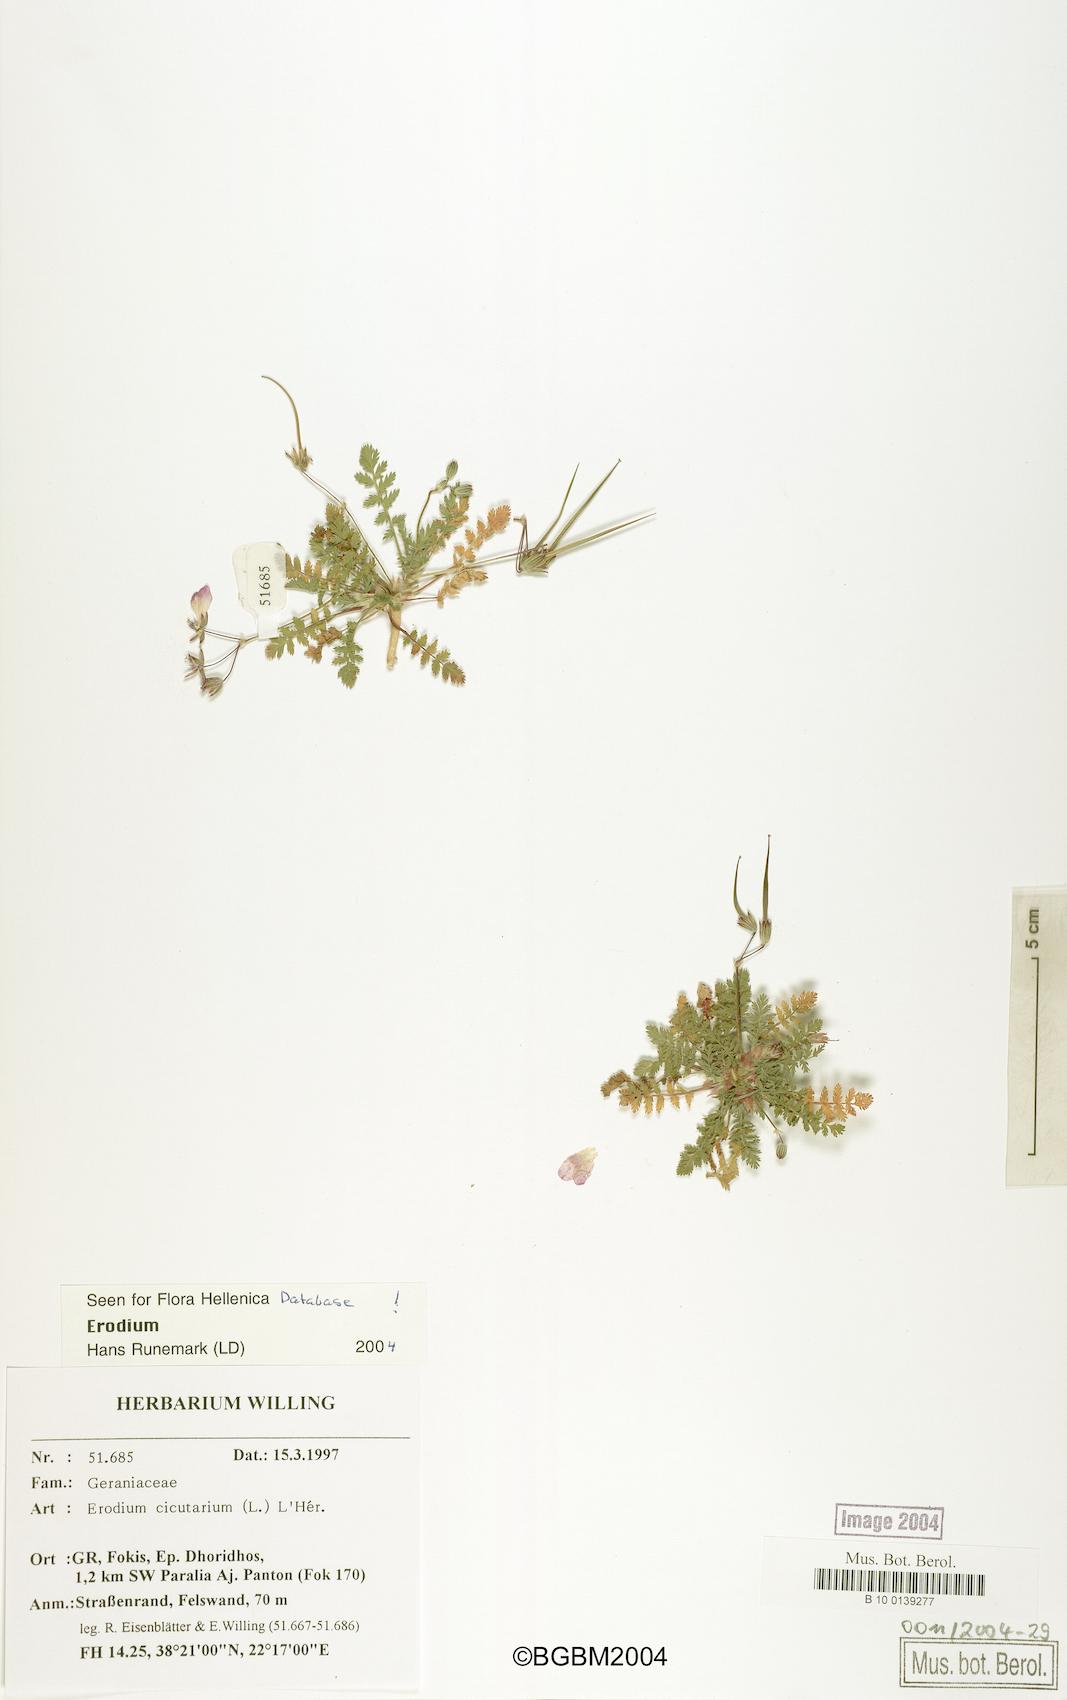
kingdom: Plantae
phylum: Tracheophyta
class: Magnoliopsida
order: Geraniales
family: Geraniaceae
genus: Erodium
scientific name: Erodium cicutarium
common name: Common stork's-bill
